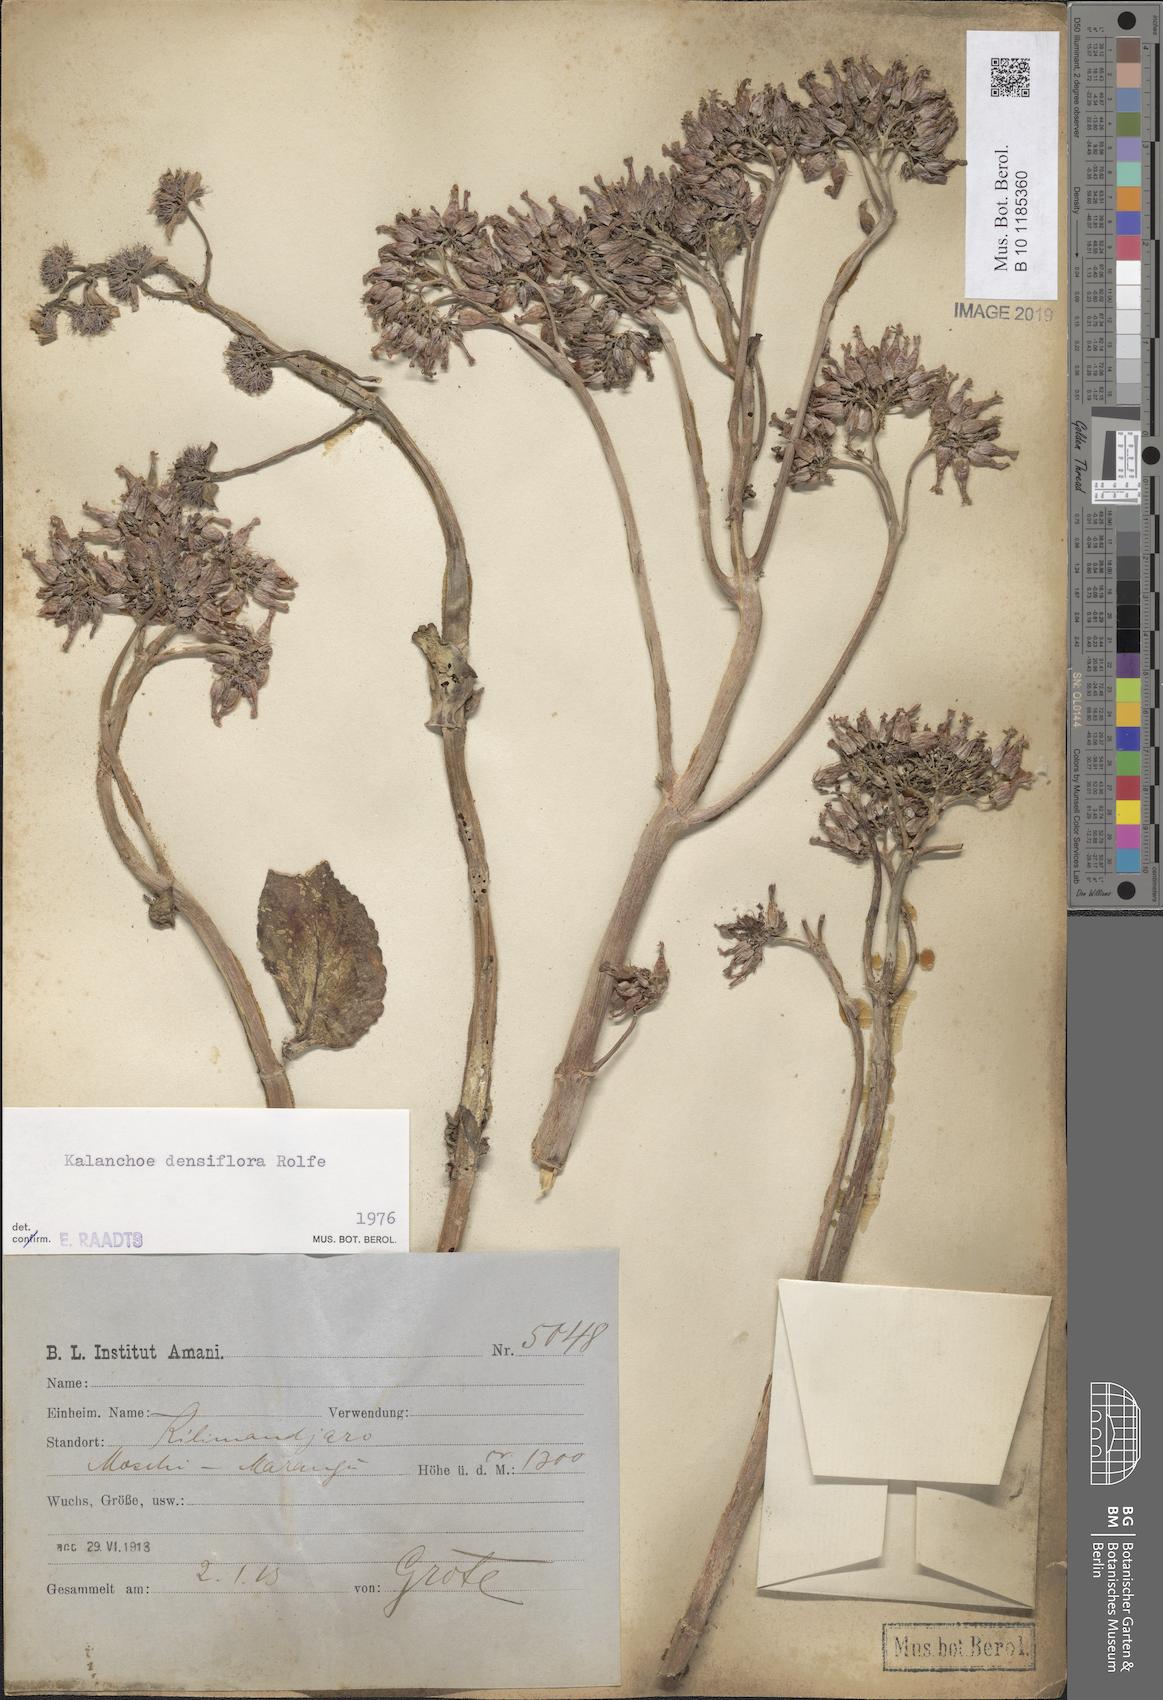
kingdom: Plantae
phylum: Tracheophyta
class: Magnoliopsida
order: Saxifragales
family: Crassulaceae
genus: Kalanchoe
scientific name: Kalanchoe densiflora
